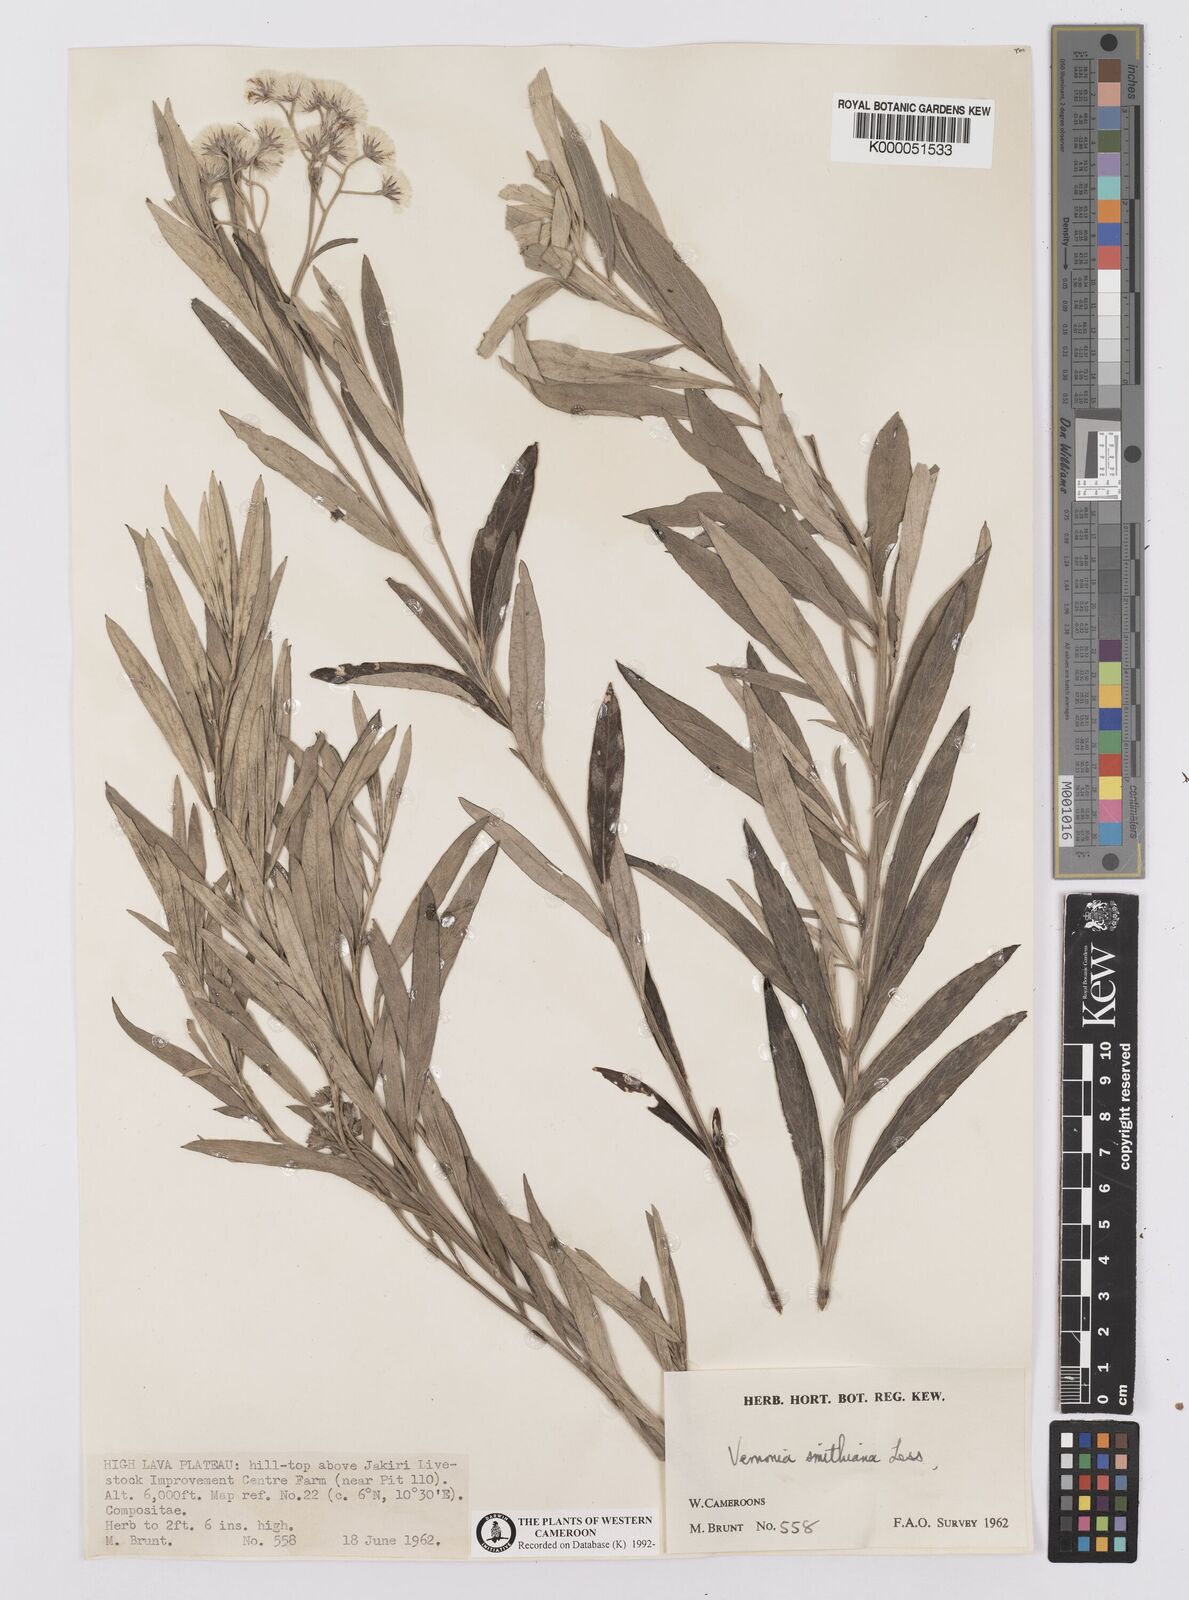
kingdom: Plantae
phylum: Tracheophyta
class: Magnoliopsida
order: Asterales
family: Asteraceae
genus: Hilliardiella
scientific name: Hilliardiella smithiana
